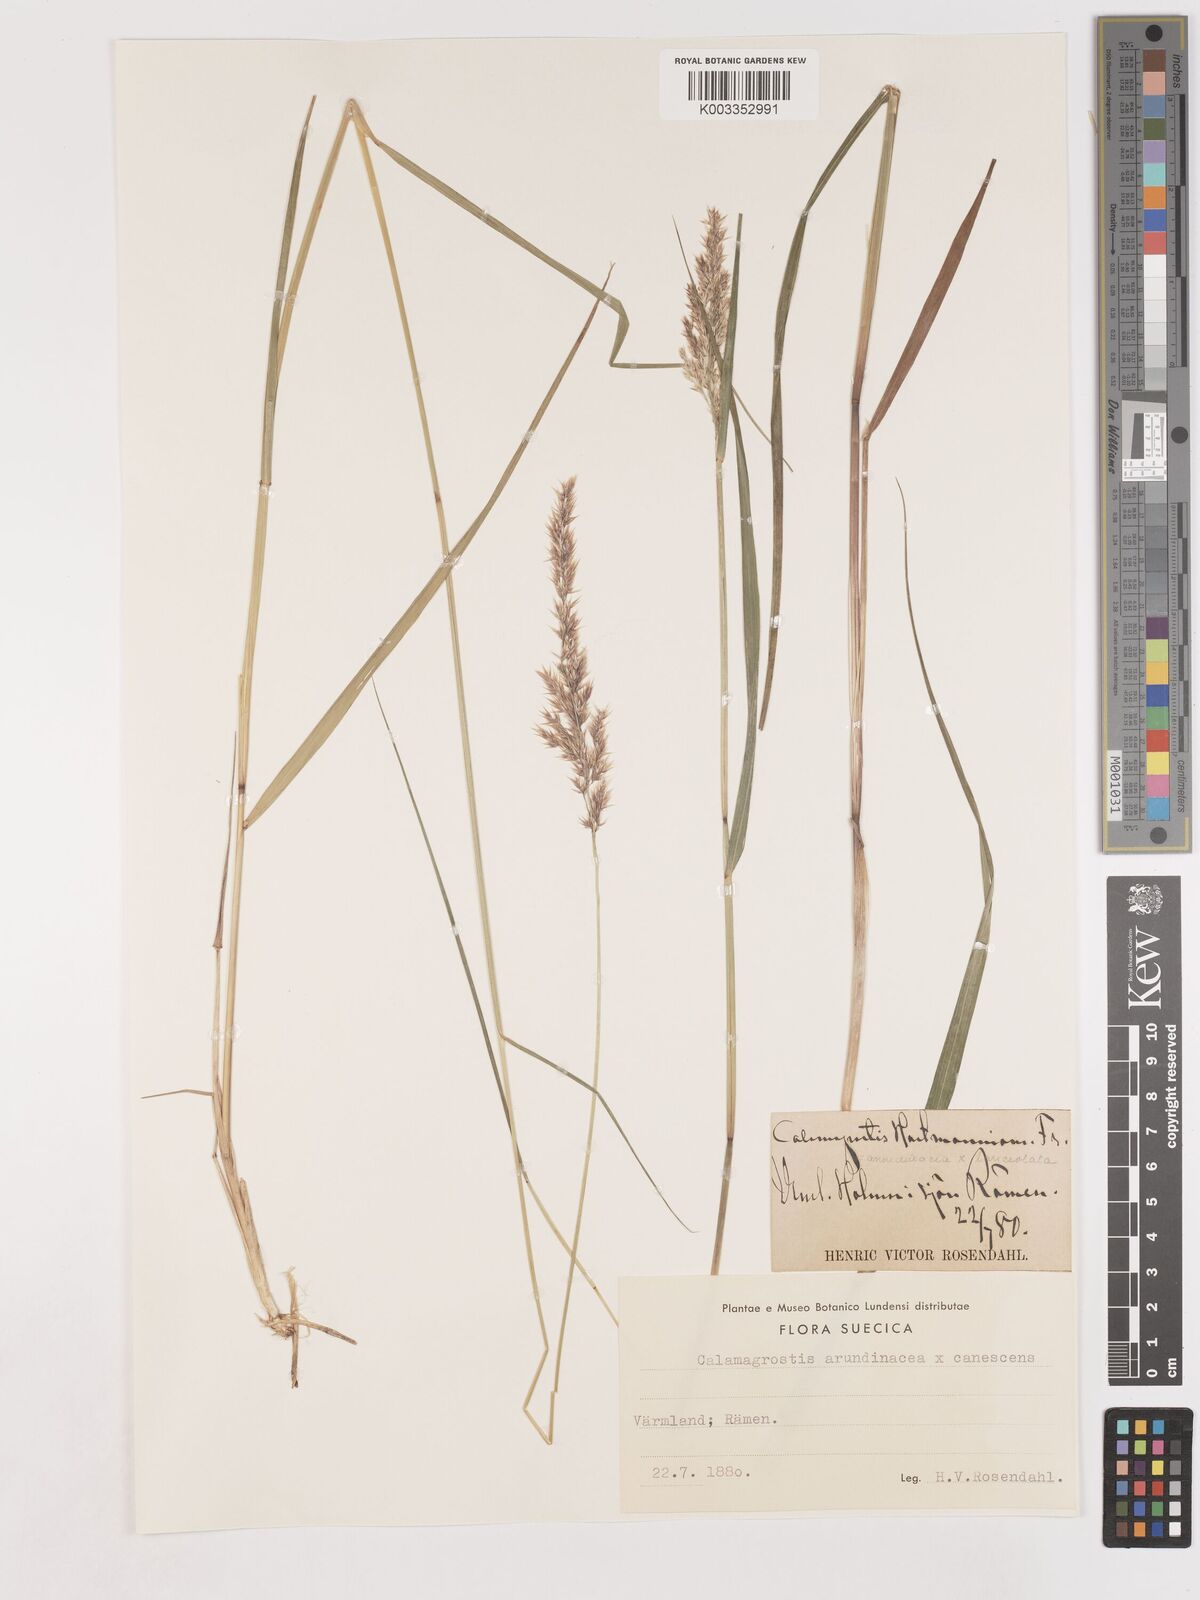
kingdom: Plantae
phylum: Tracheophyta
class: Liliopsida
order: Poales
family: Poaceae
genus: Calamagrostis
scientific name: Calamagrostis canescens
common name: Purple small-reed
